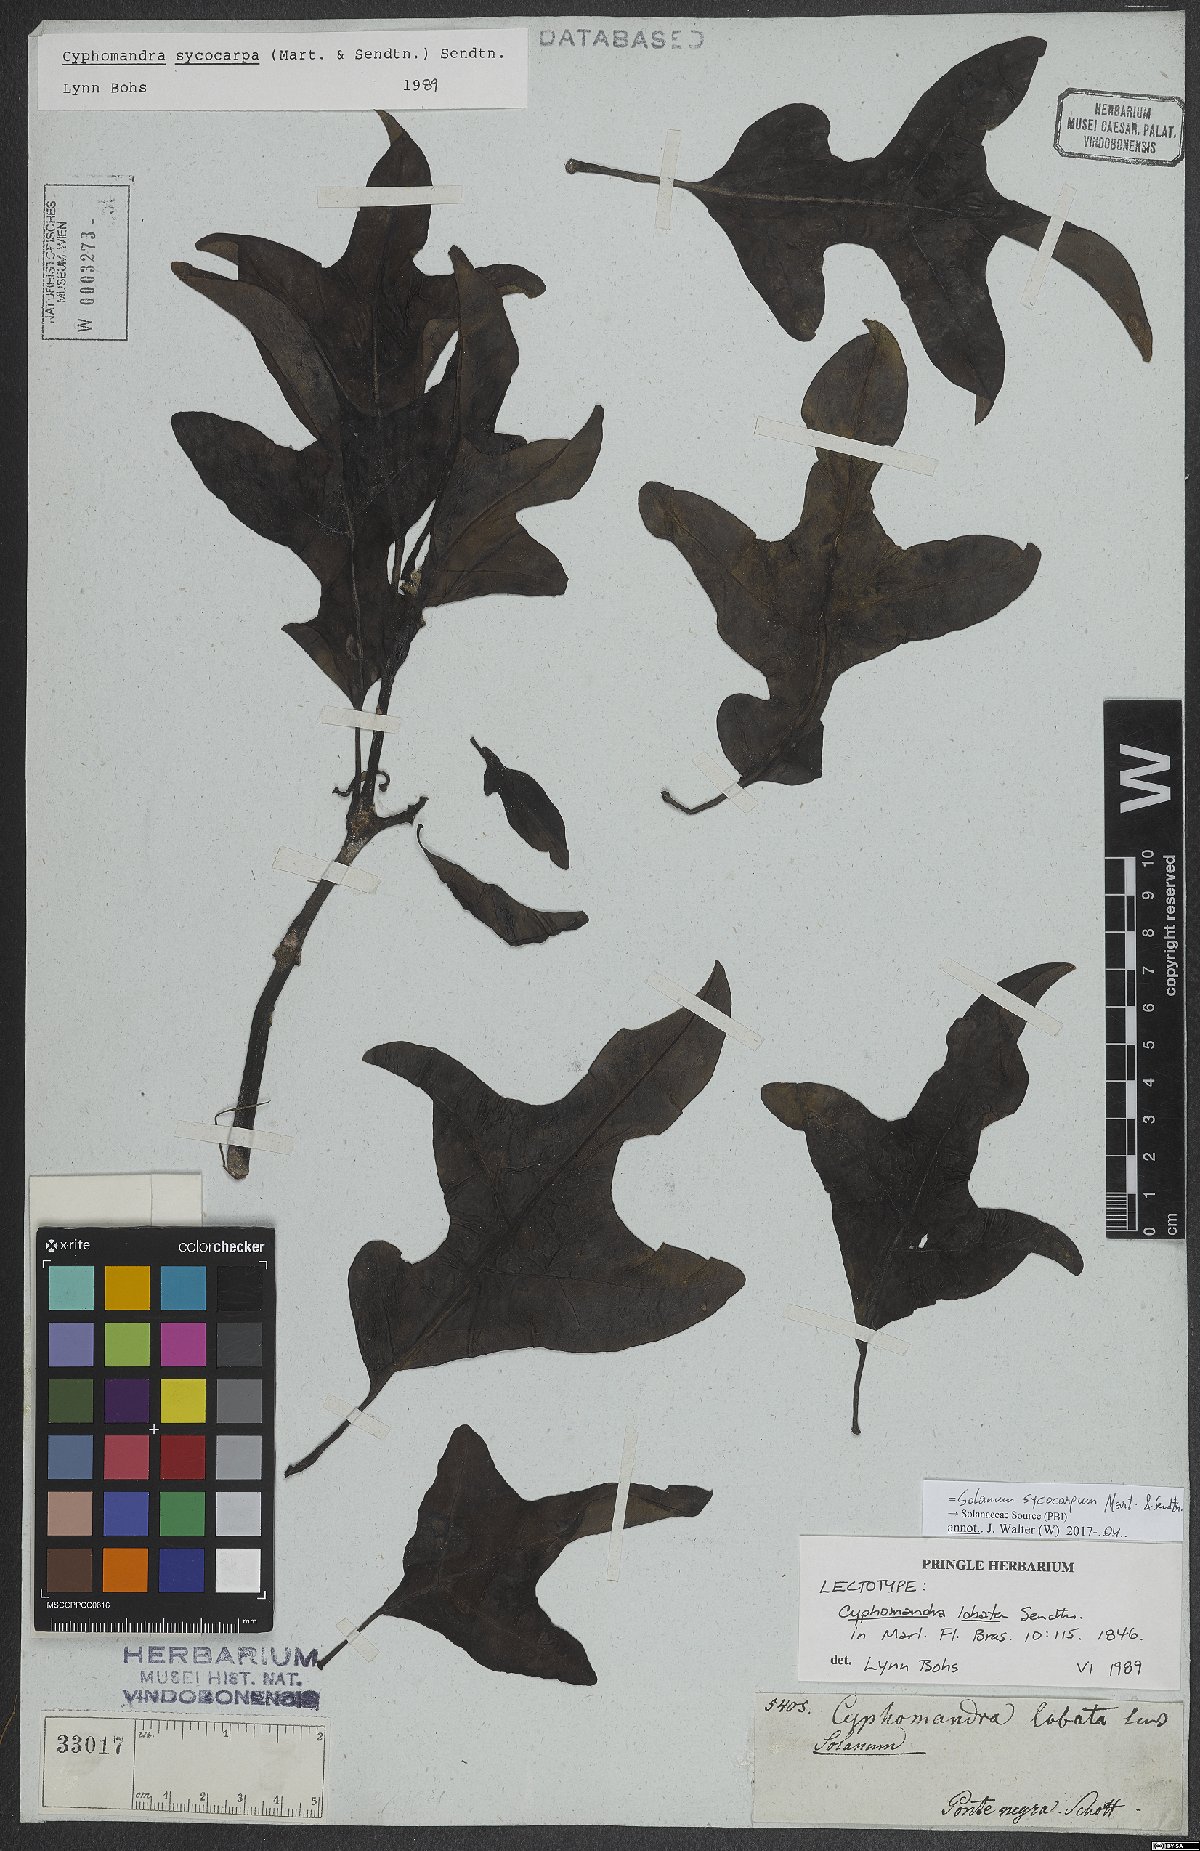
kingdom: Plantae
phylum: Tracheophyta
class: Magnoliopsida
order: Solanales
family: Solanaceae
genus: Solanum
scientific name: Solanum sycocarpum
